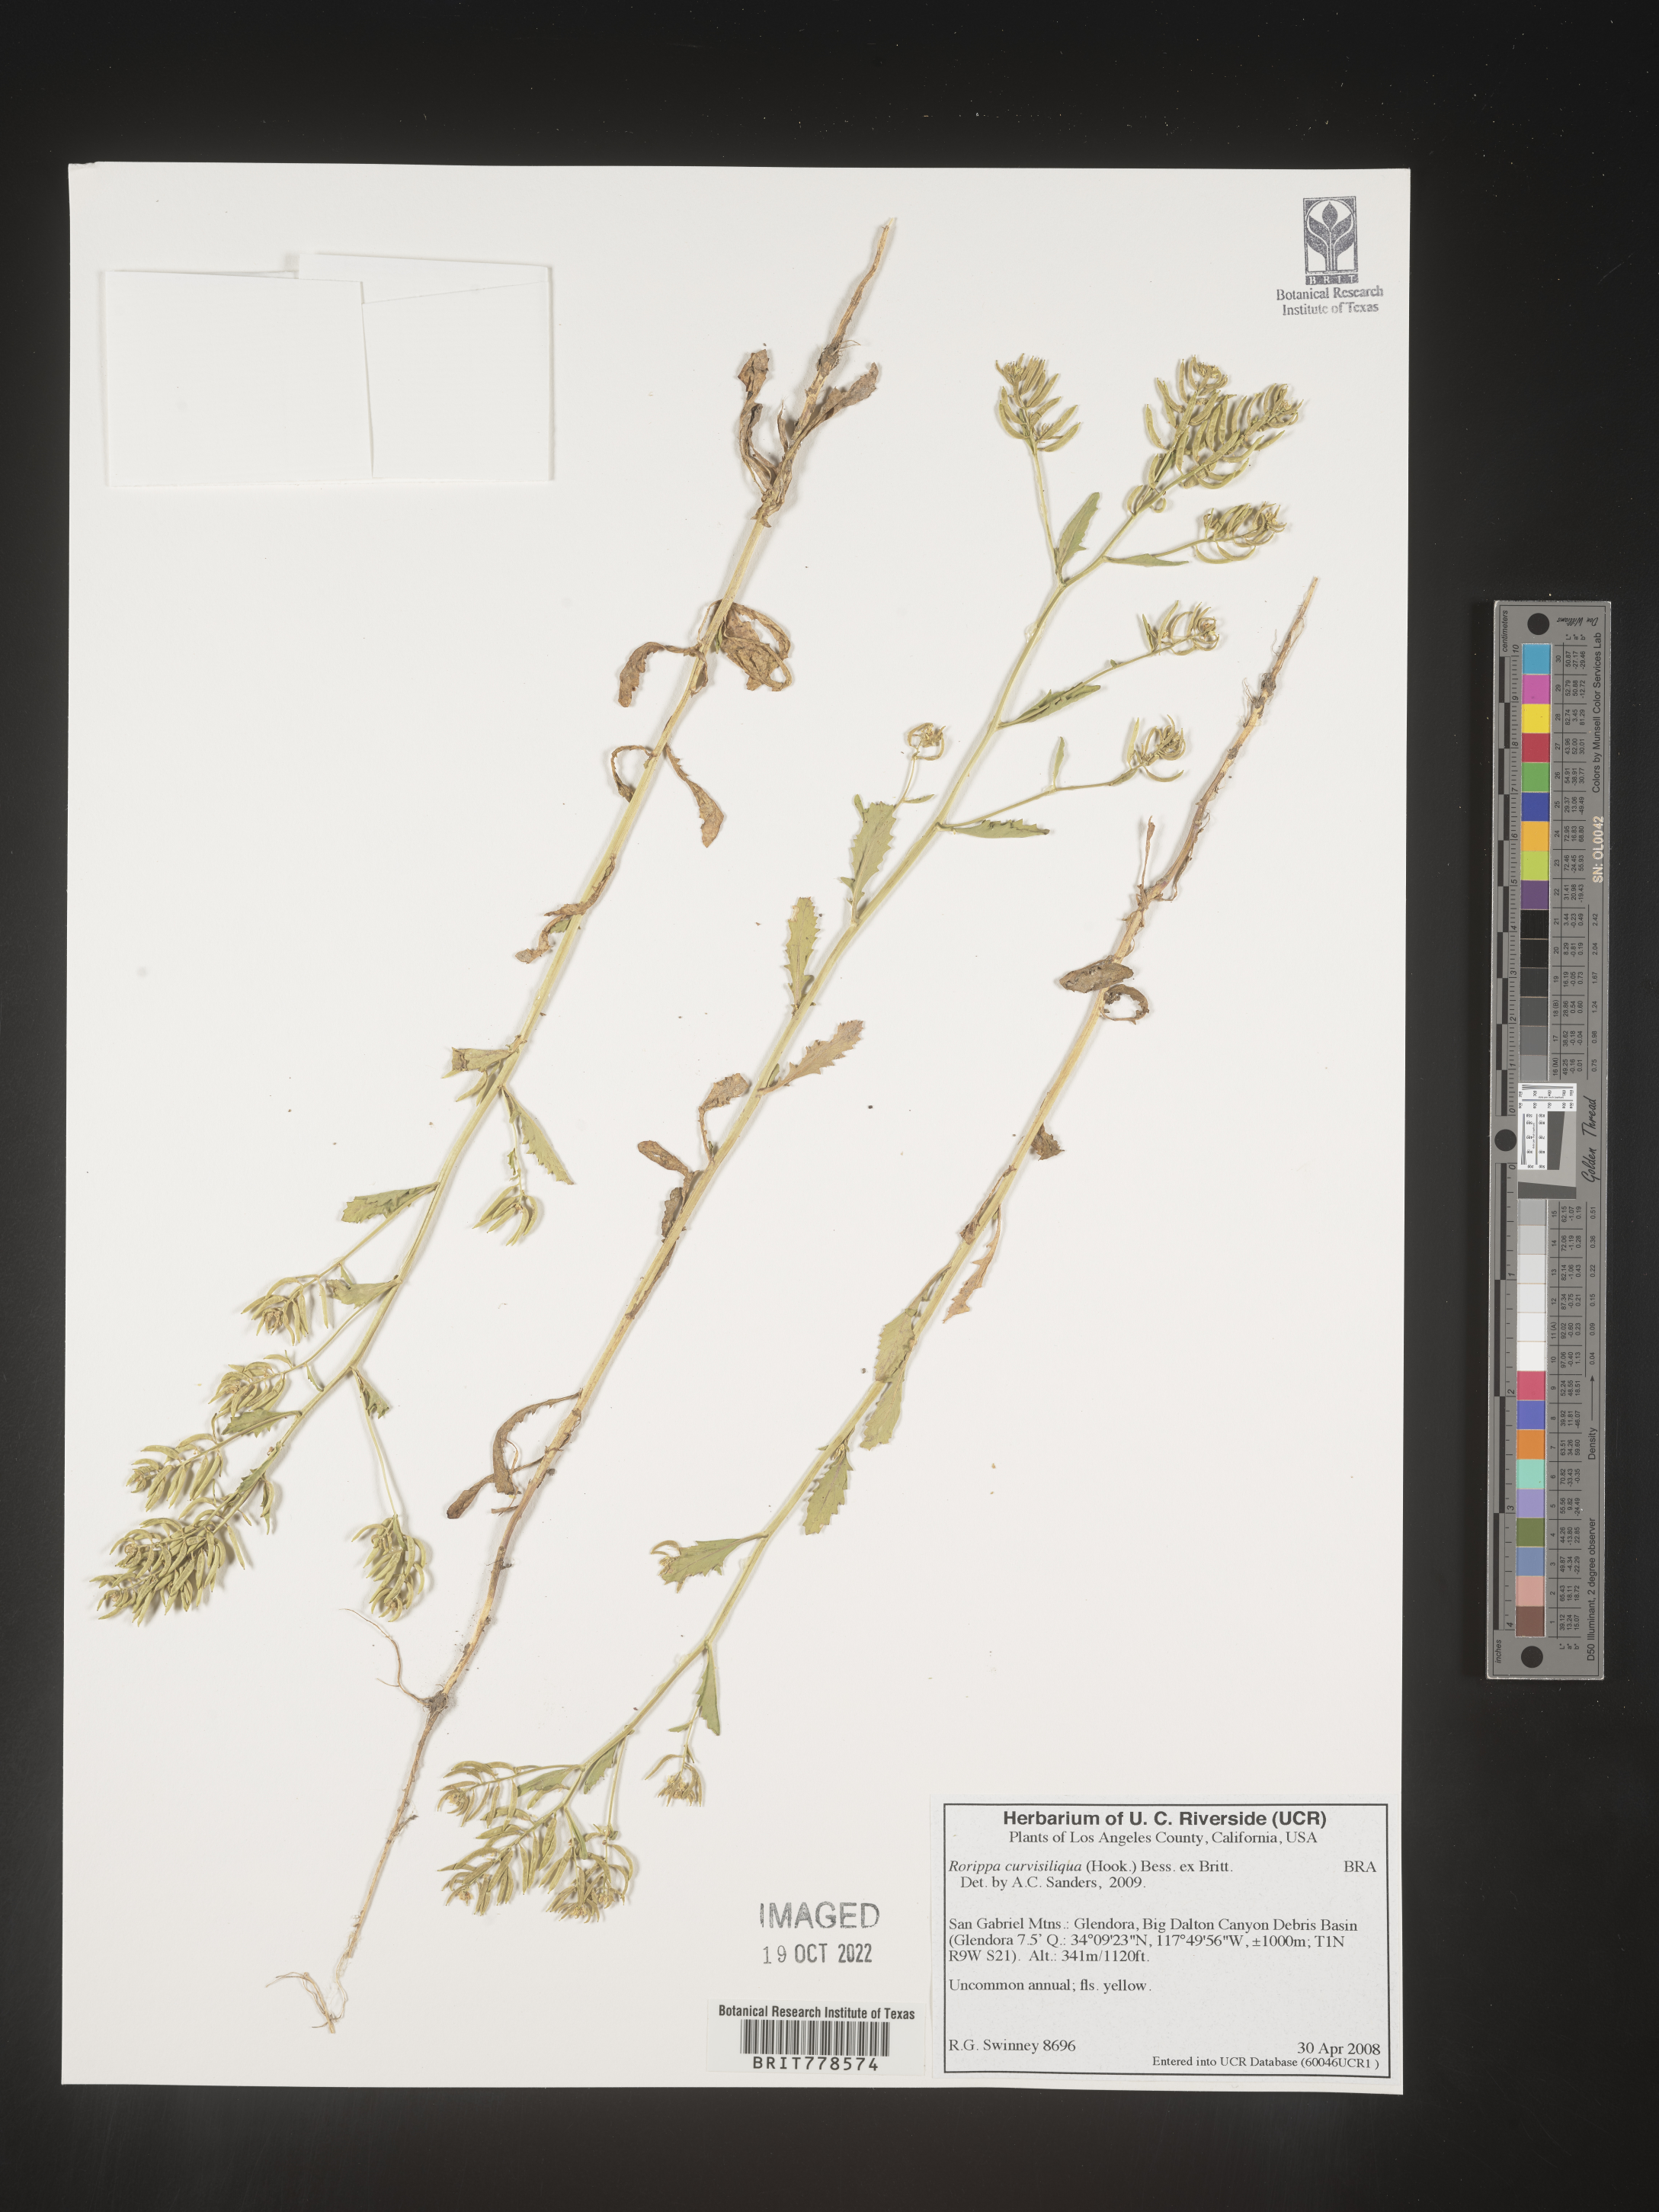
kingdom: Plantae
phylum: Tracheophyta
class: Magnoliopsida
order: Brassicales
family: Brassicaceae
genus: Rorippa
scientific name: Rorippa
